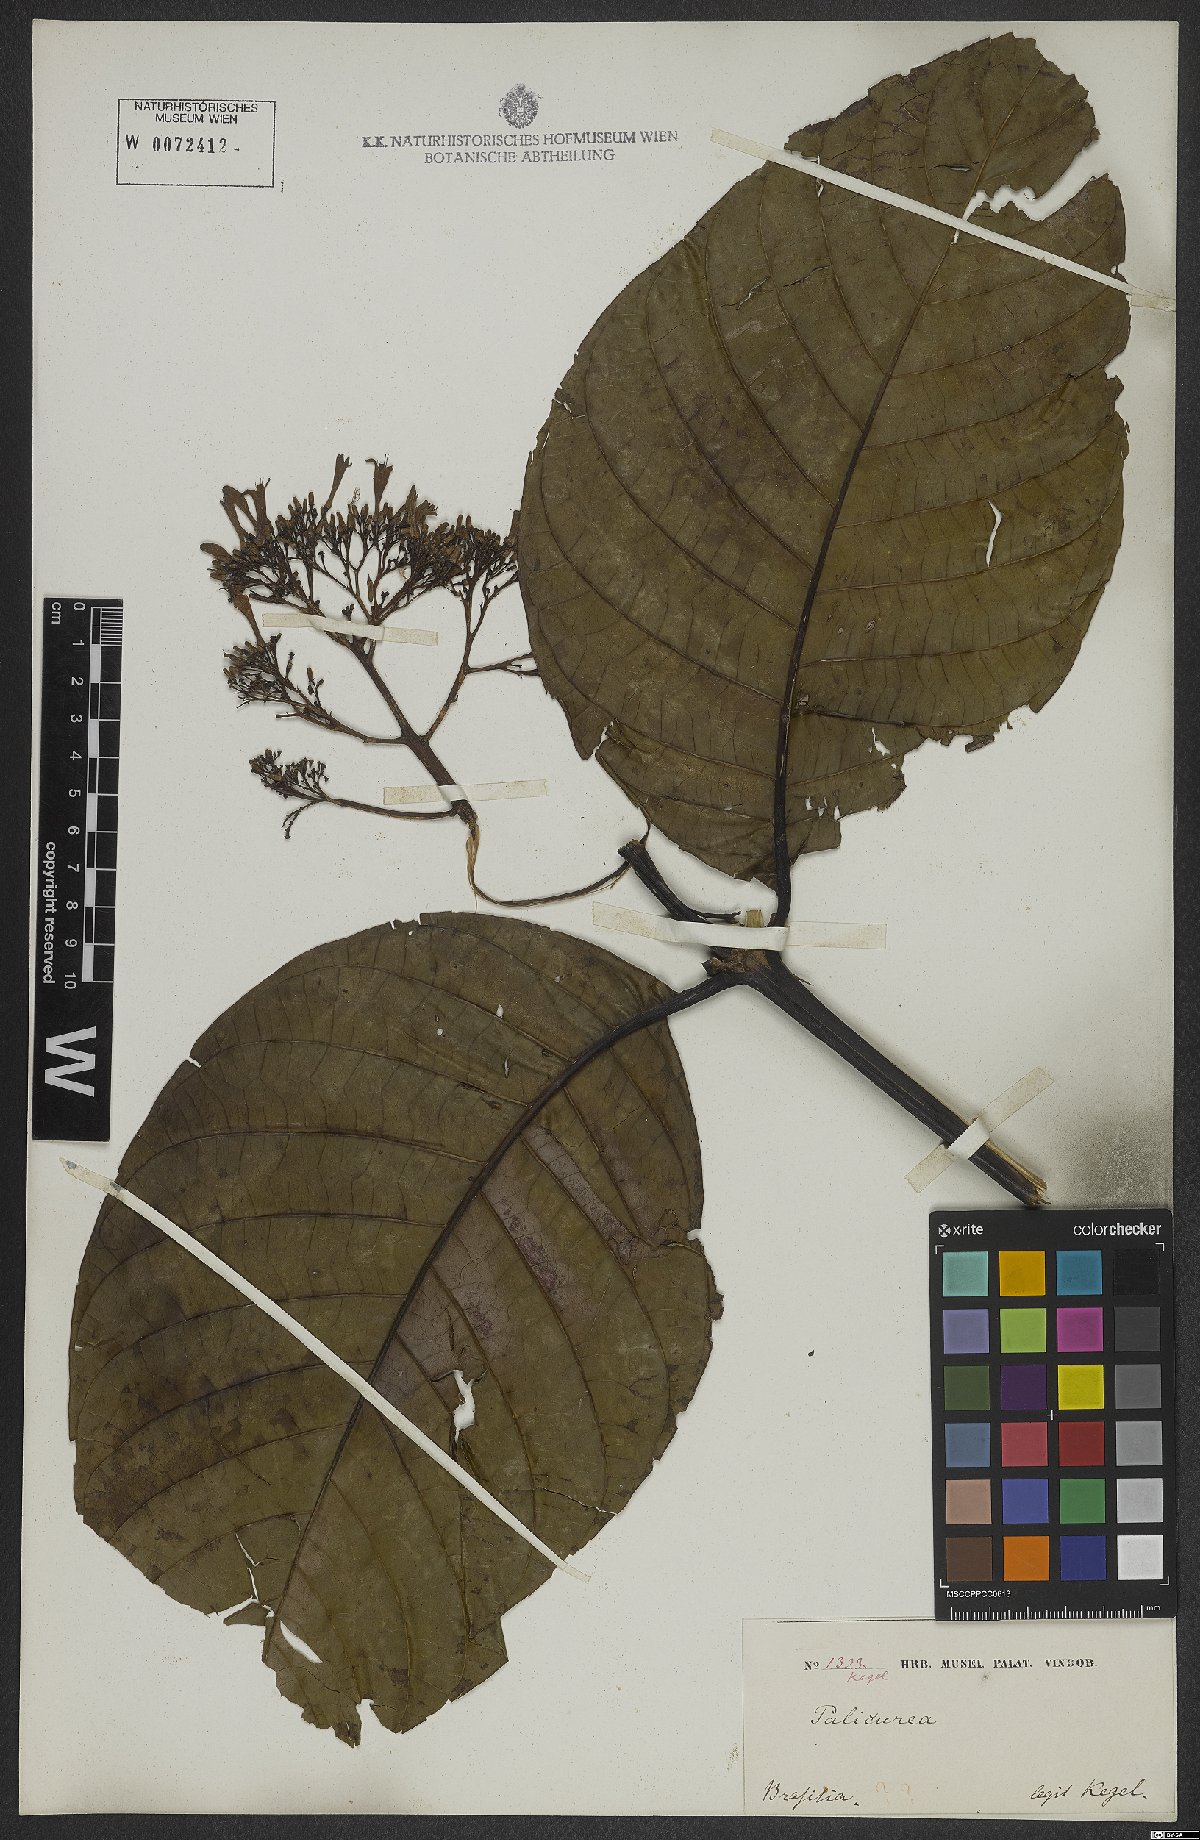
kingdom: Plantae
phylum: Tracheophyta
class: Magnoliopsida
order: Gentianales
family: Rubiaceae
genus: Palicourea
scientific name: Palicourea guianensis
